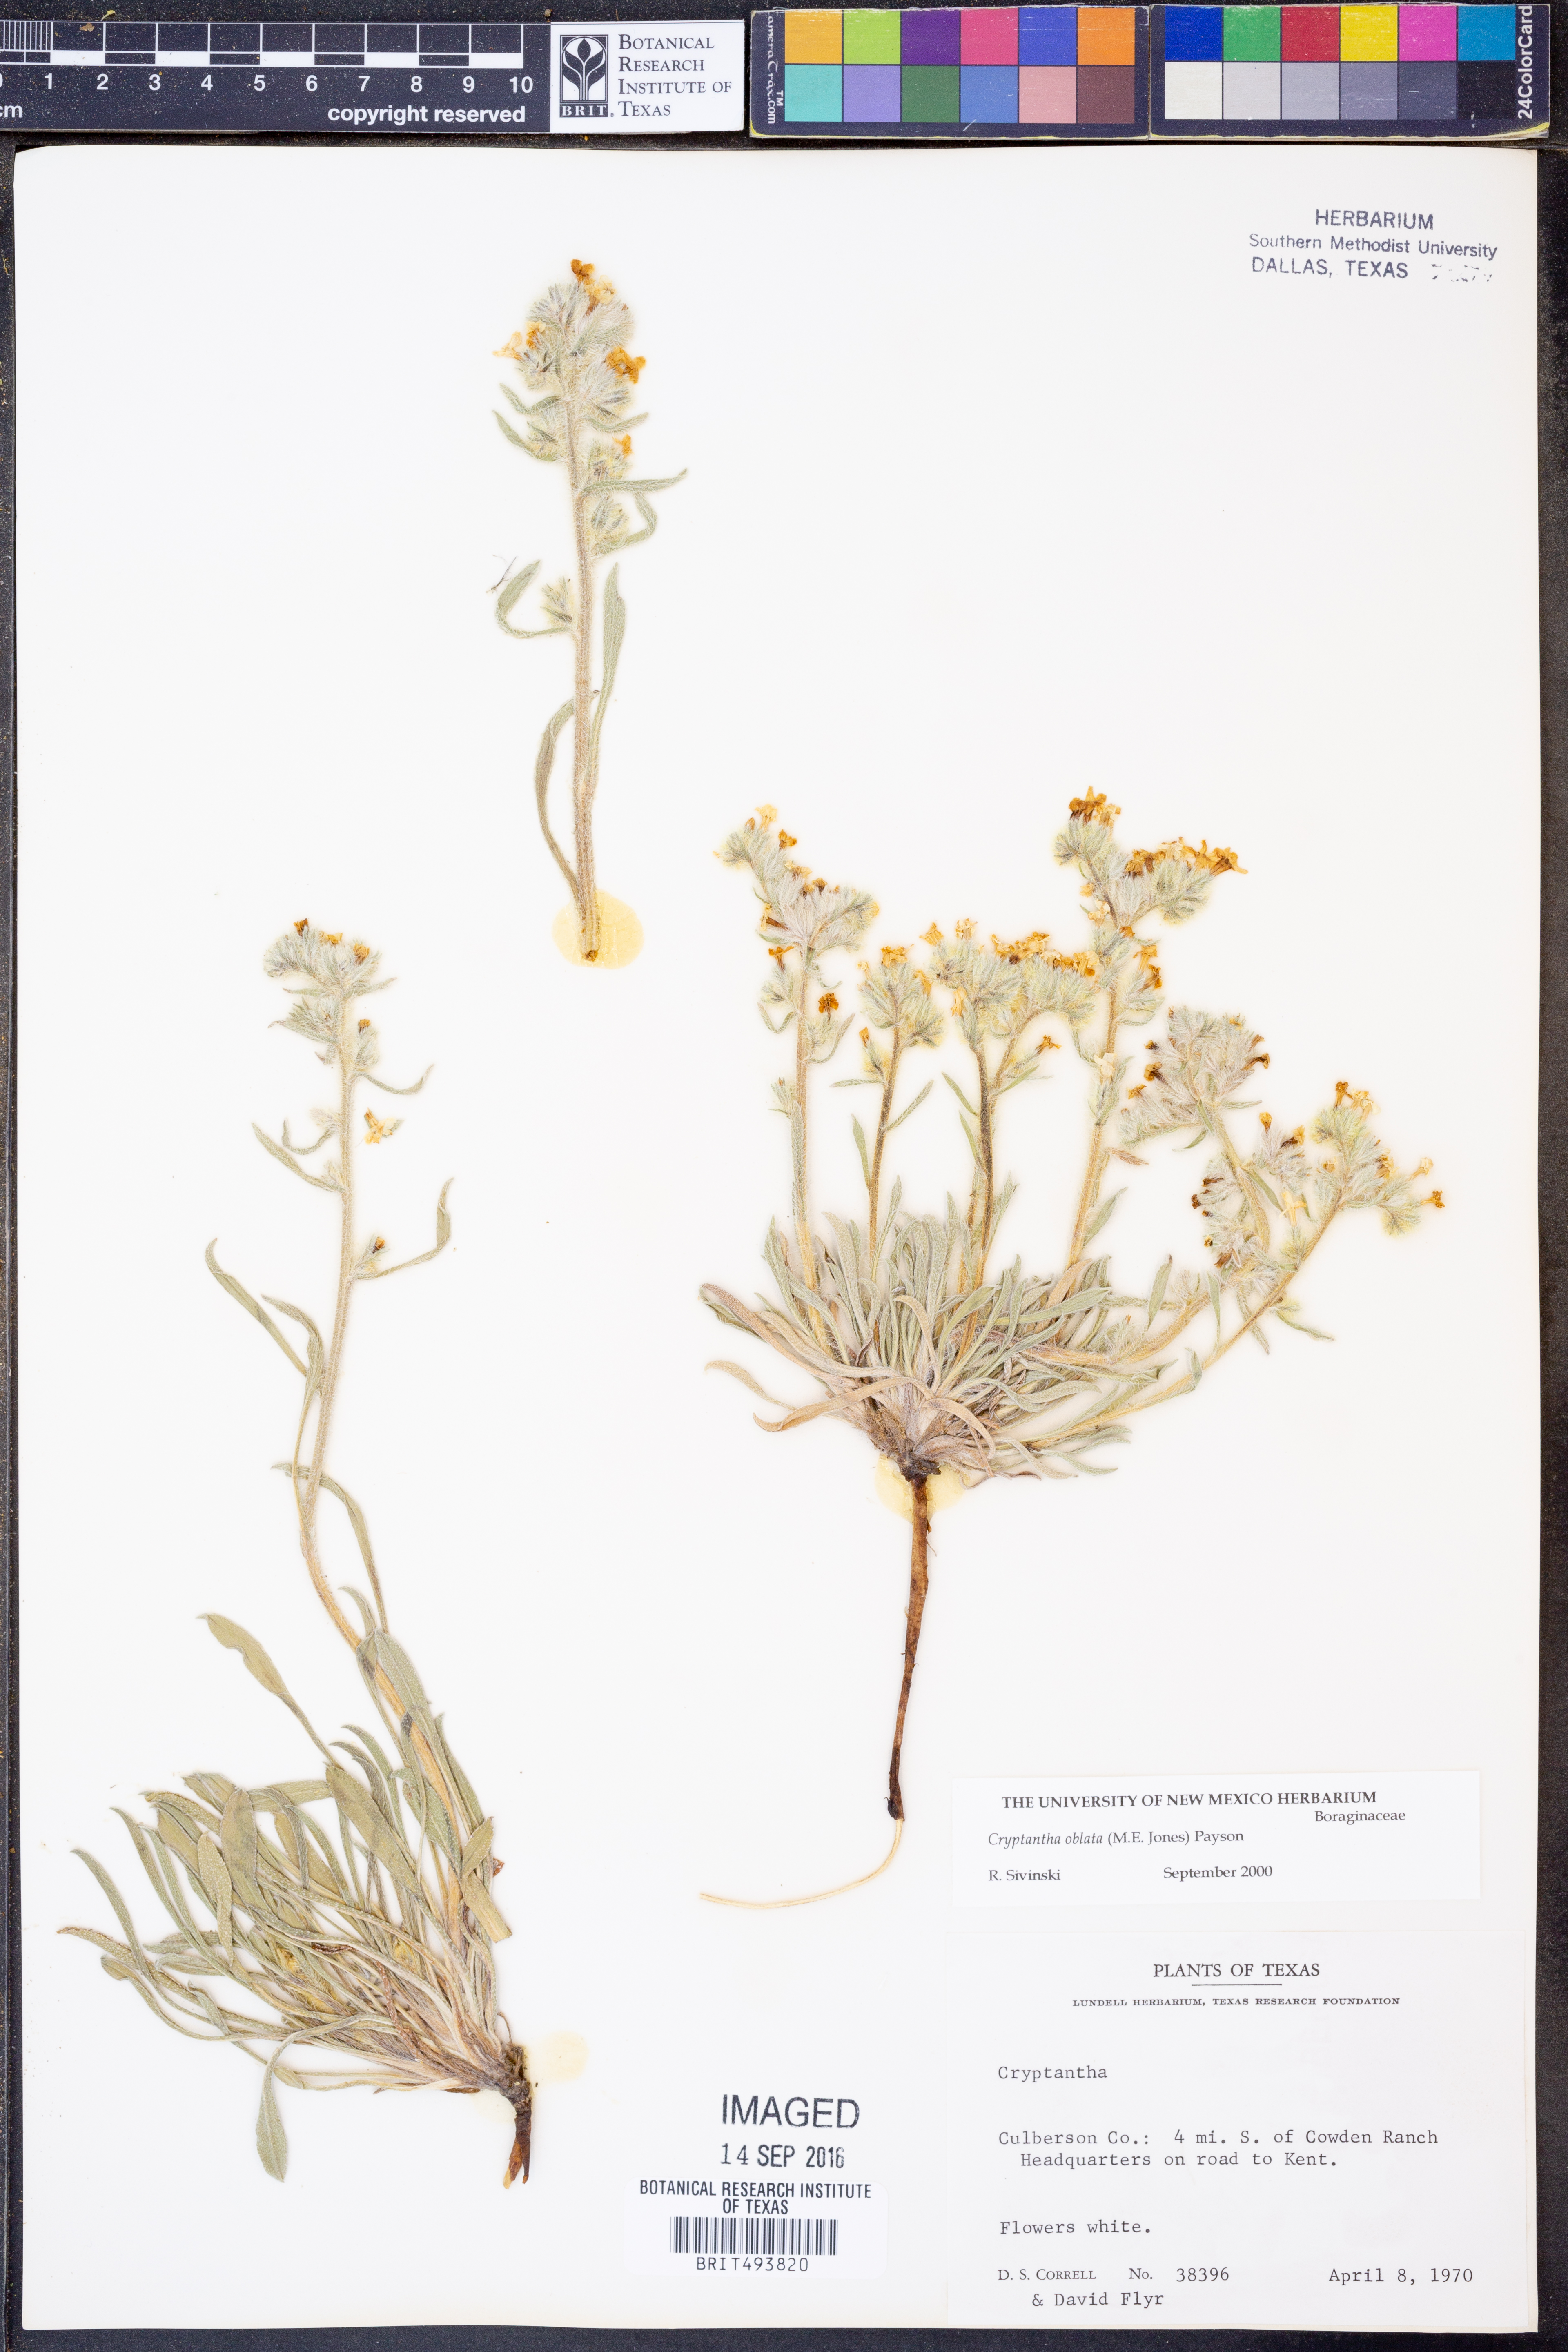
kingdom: Plantae
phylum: Tracheophyta
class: Magnoliopsida
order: Boraginales
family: Boraginaceae
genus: Oreocarya
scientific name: Oreocarya oblata
